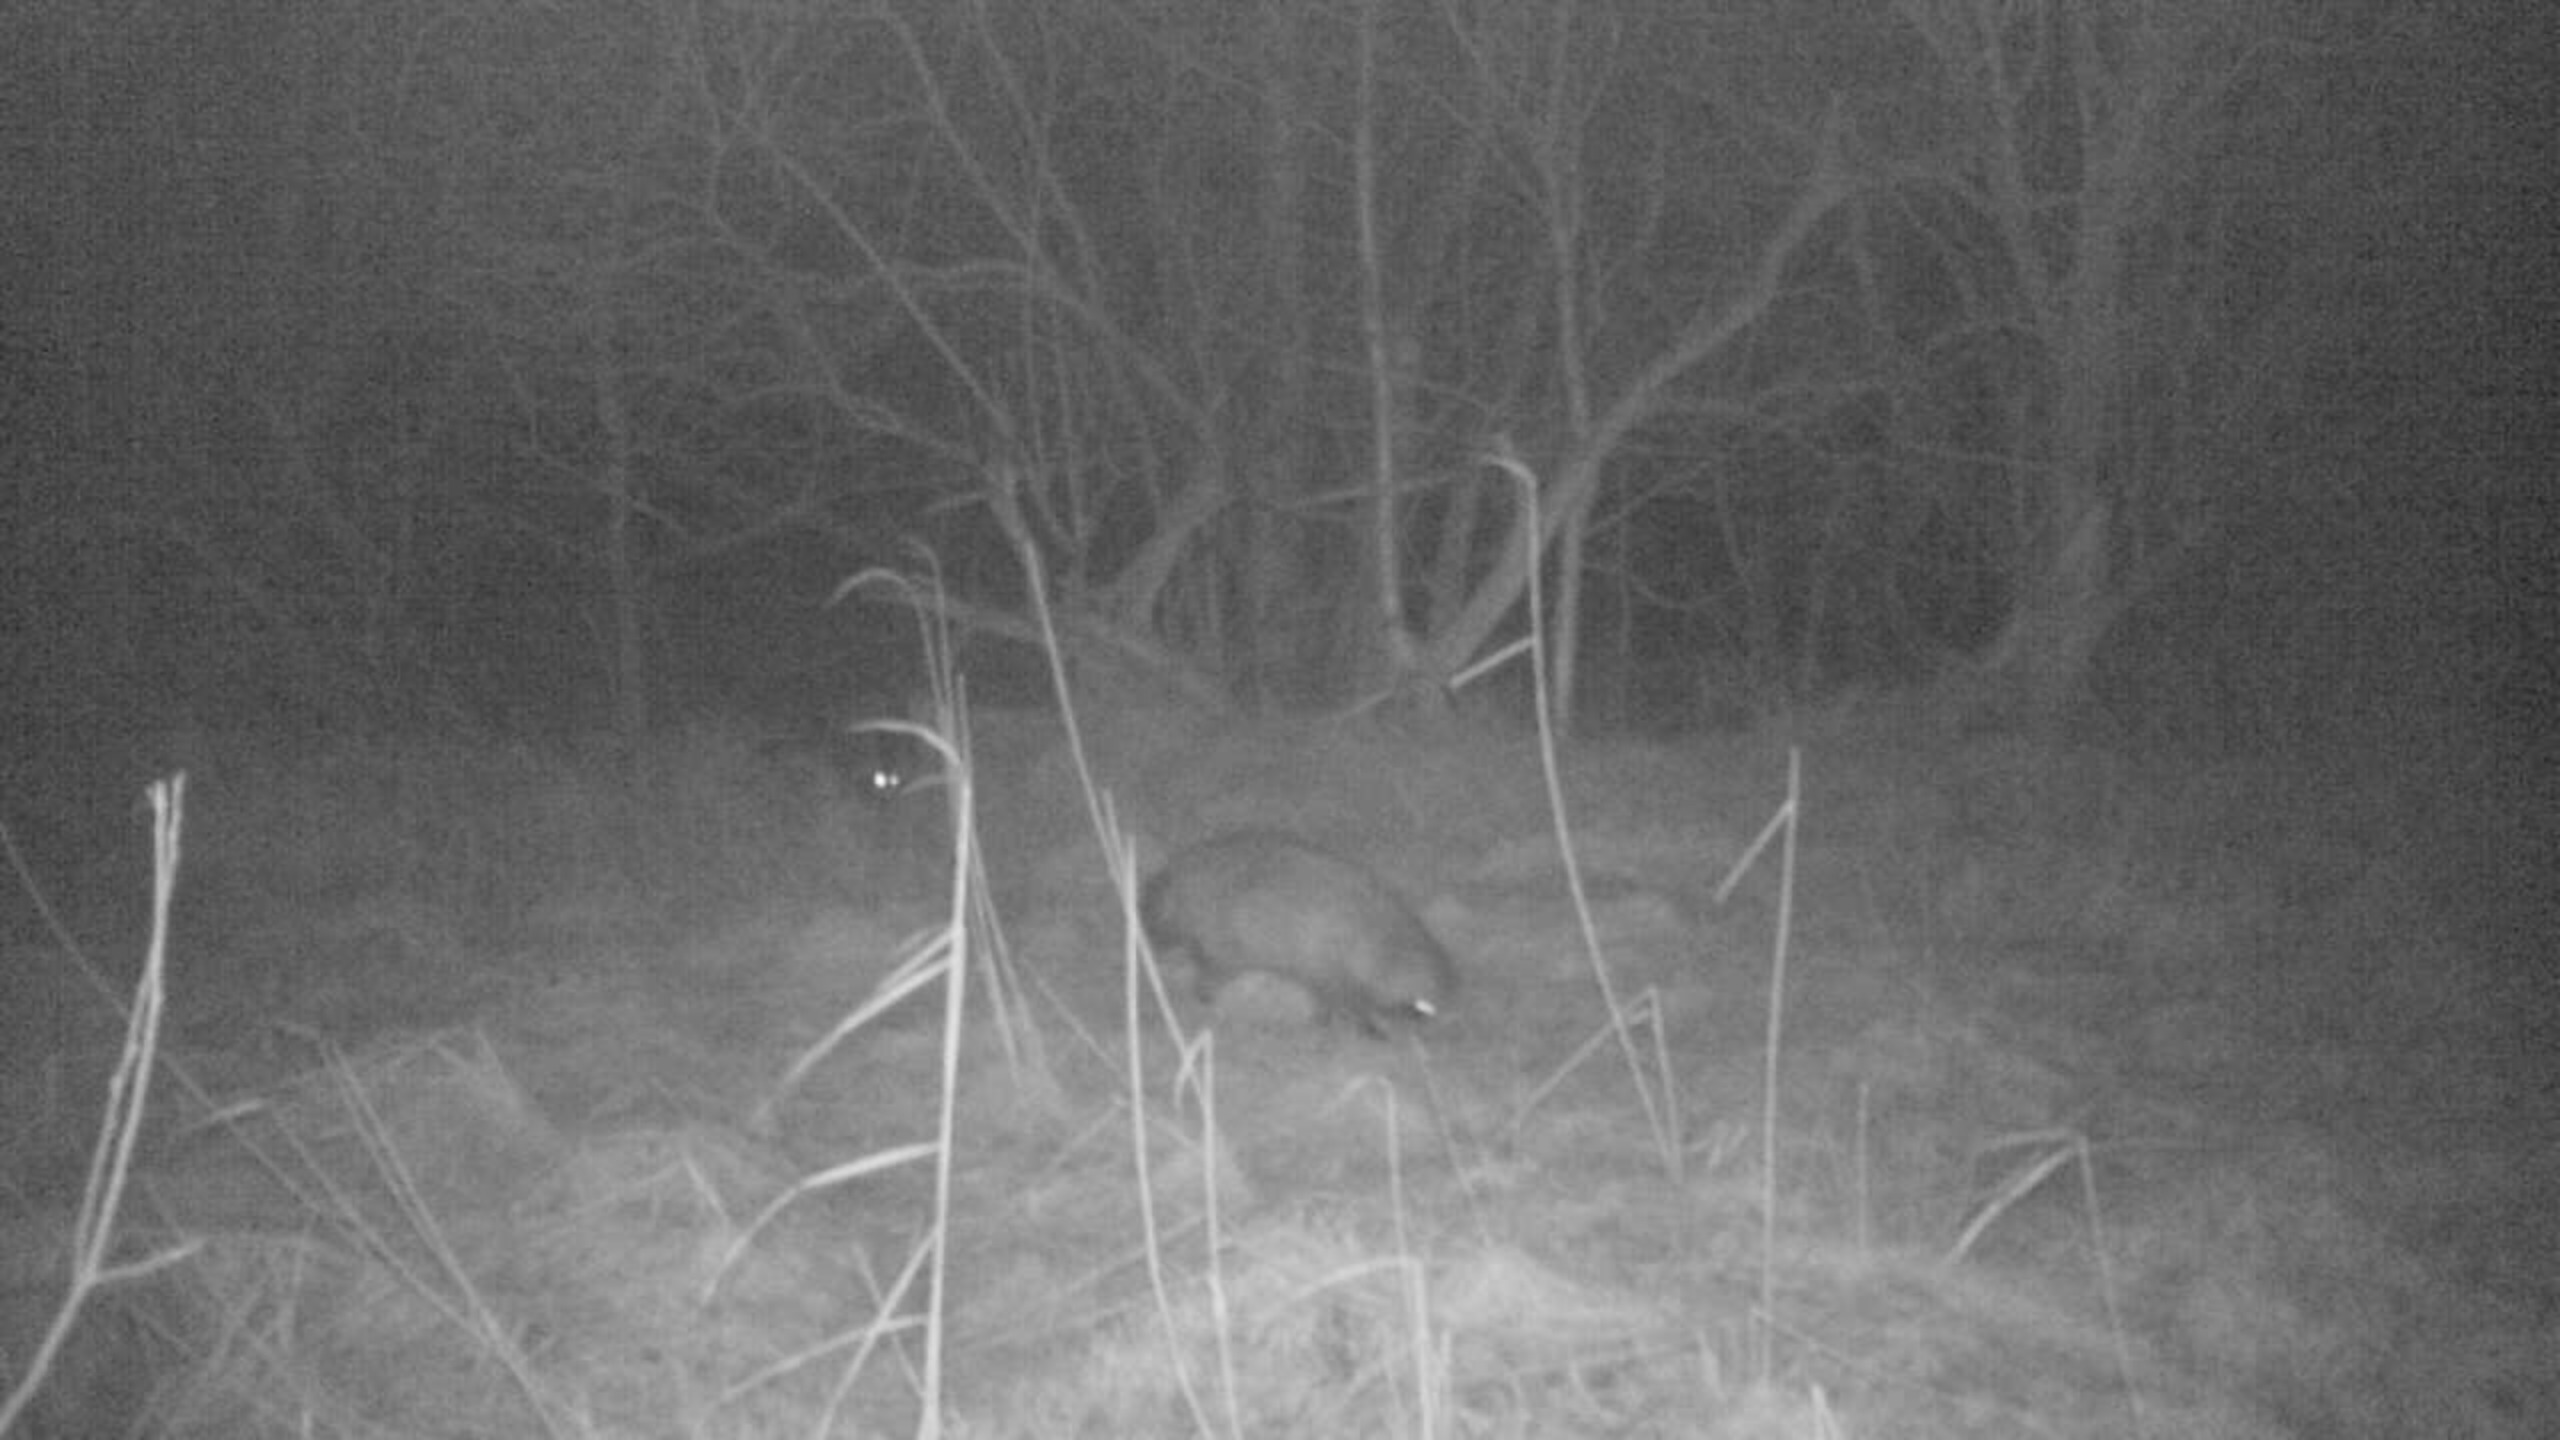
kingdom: Animalia
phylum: Chordata
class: Mammalia
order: Carnivora
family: Canidae
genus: Nyctereutes
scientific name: Nyctereutes procyonoides
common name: Mårhund
